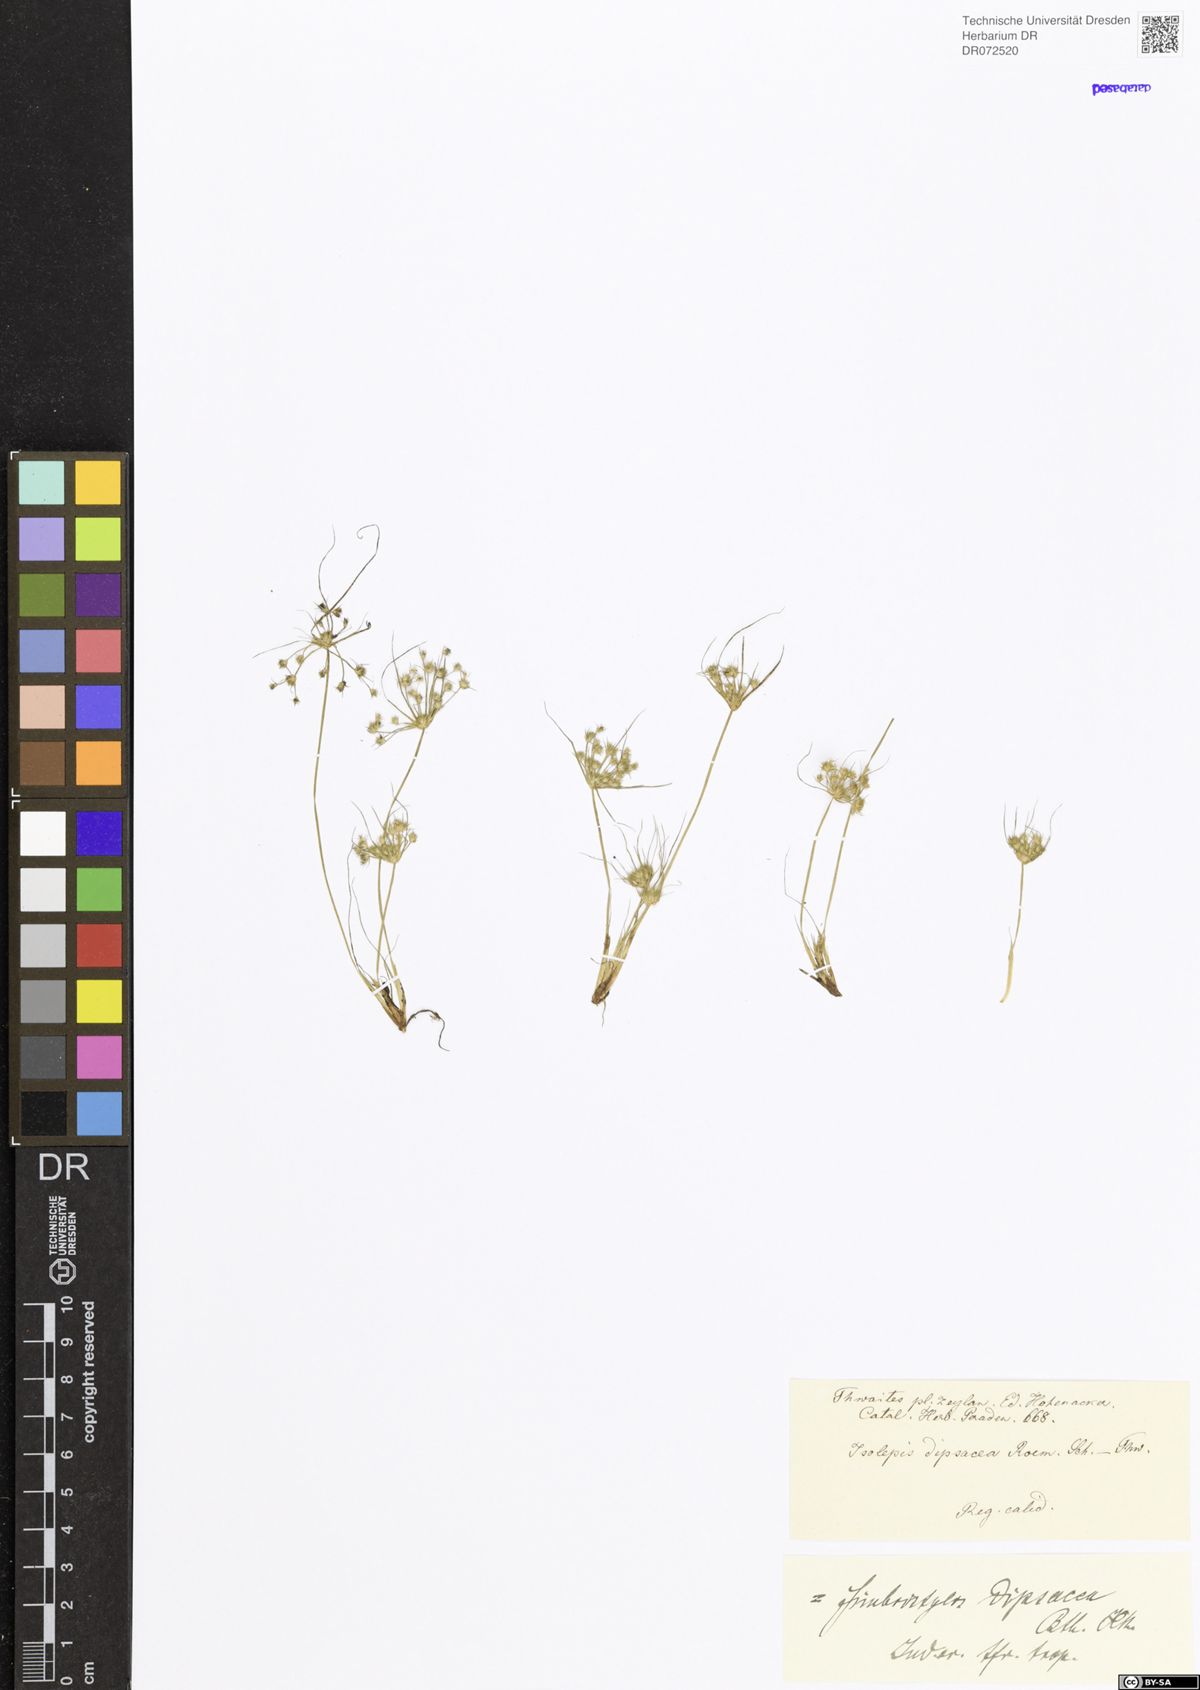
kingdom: Plantae
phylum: Tracheophyta
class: Liliopsida
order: Poales
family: Cyperaceae
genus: Fimbristylis
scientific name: Fimbristylis dipsacea
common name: Harper's fimbristylis
